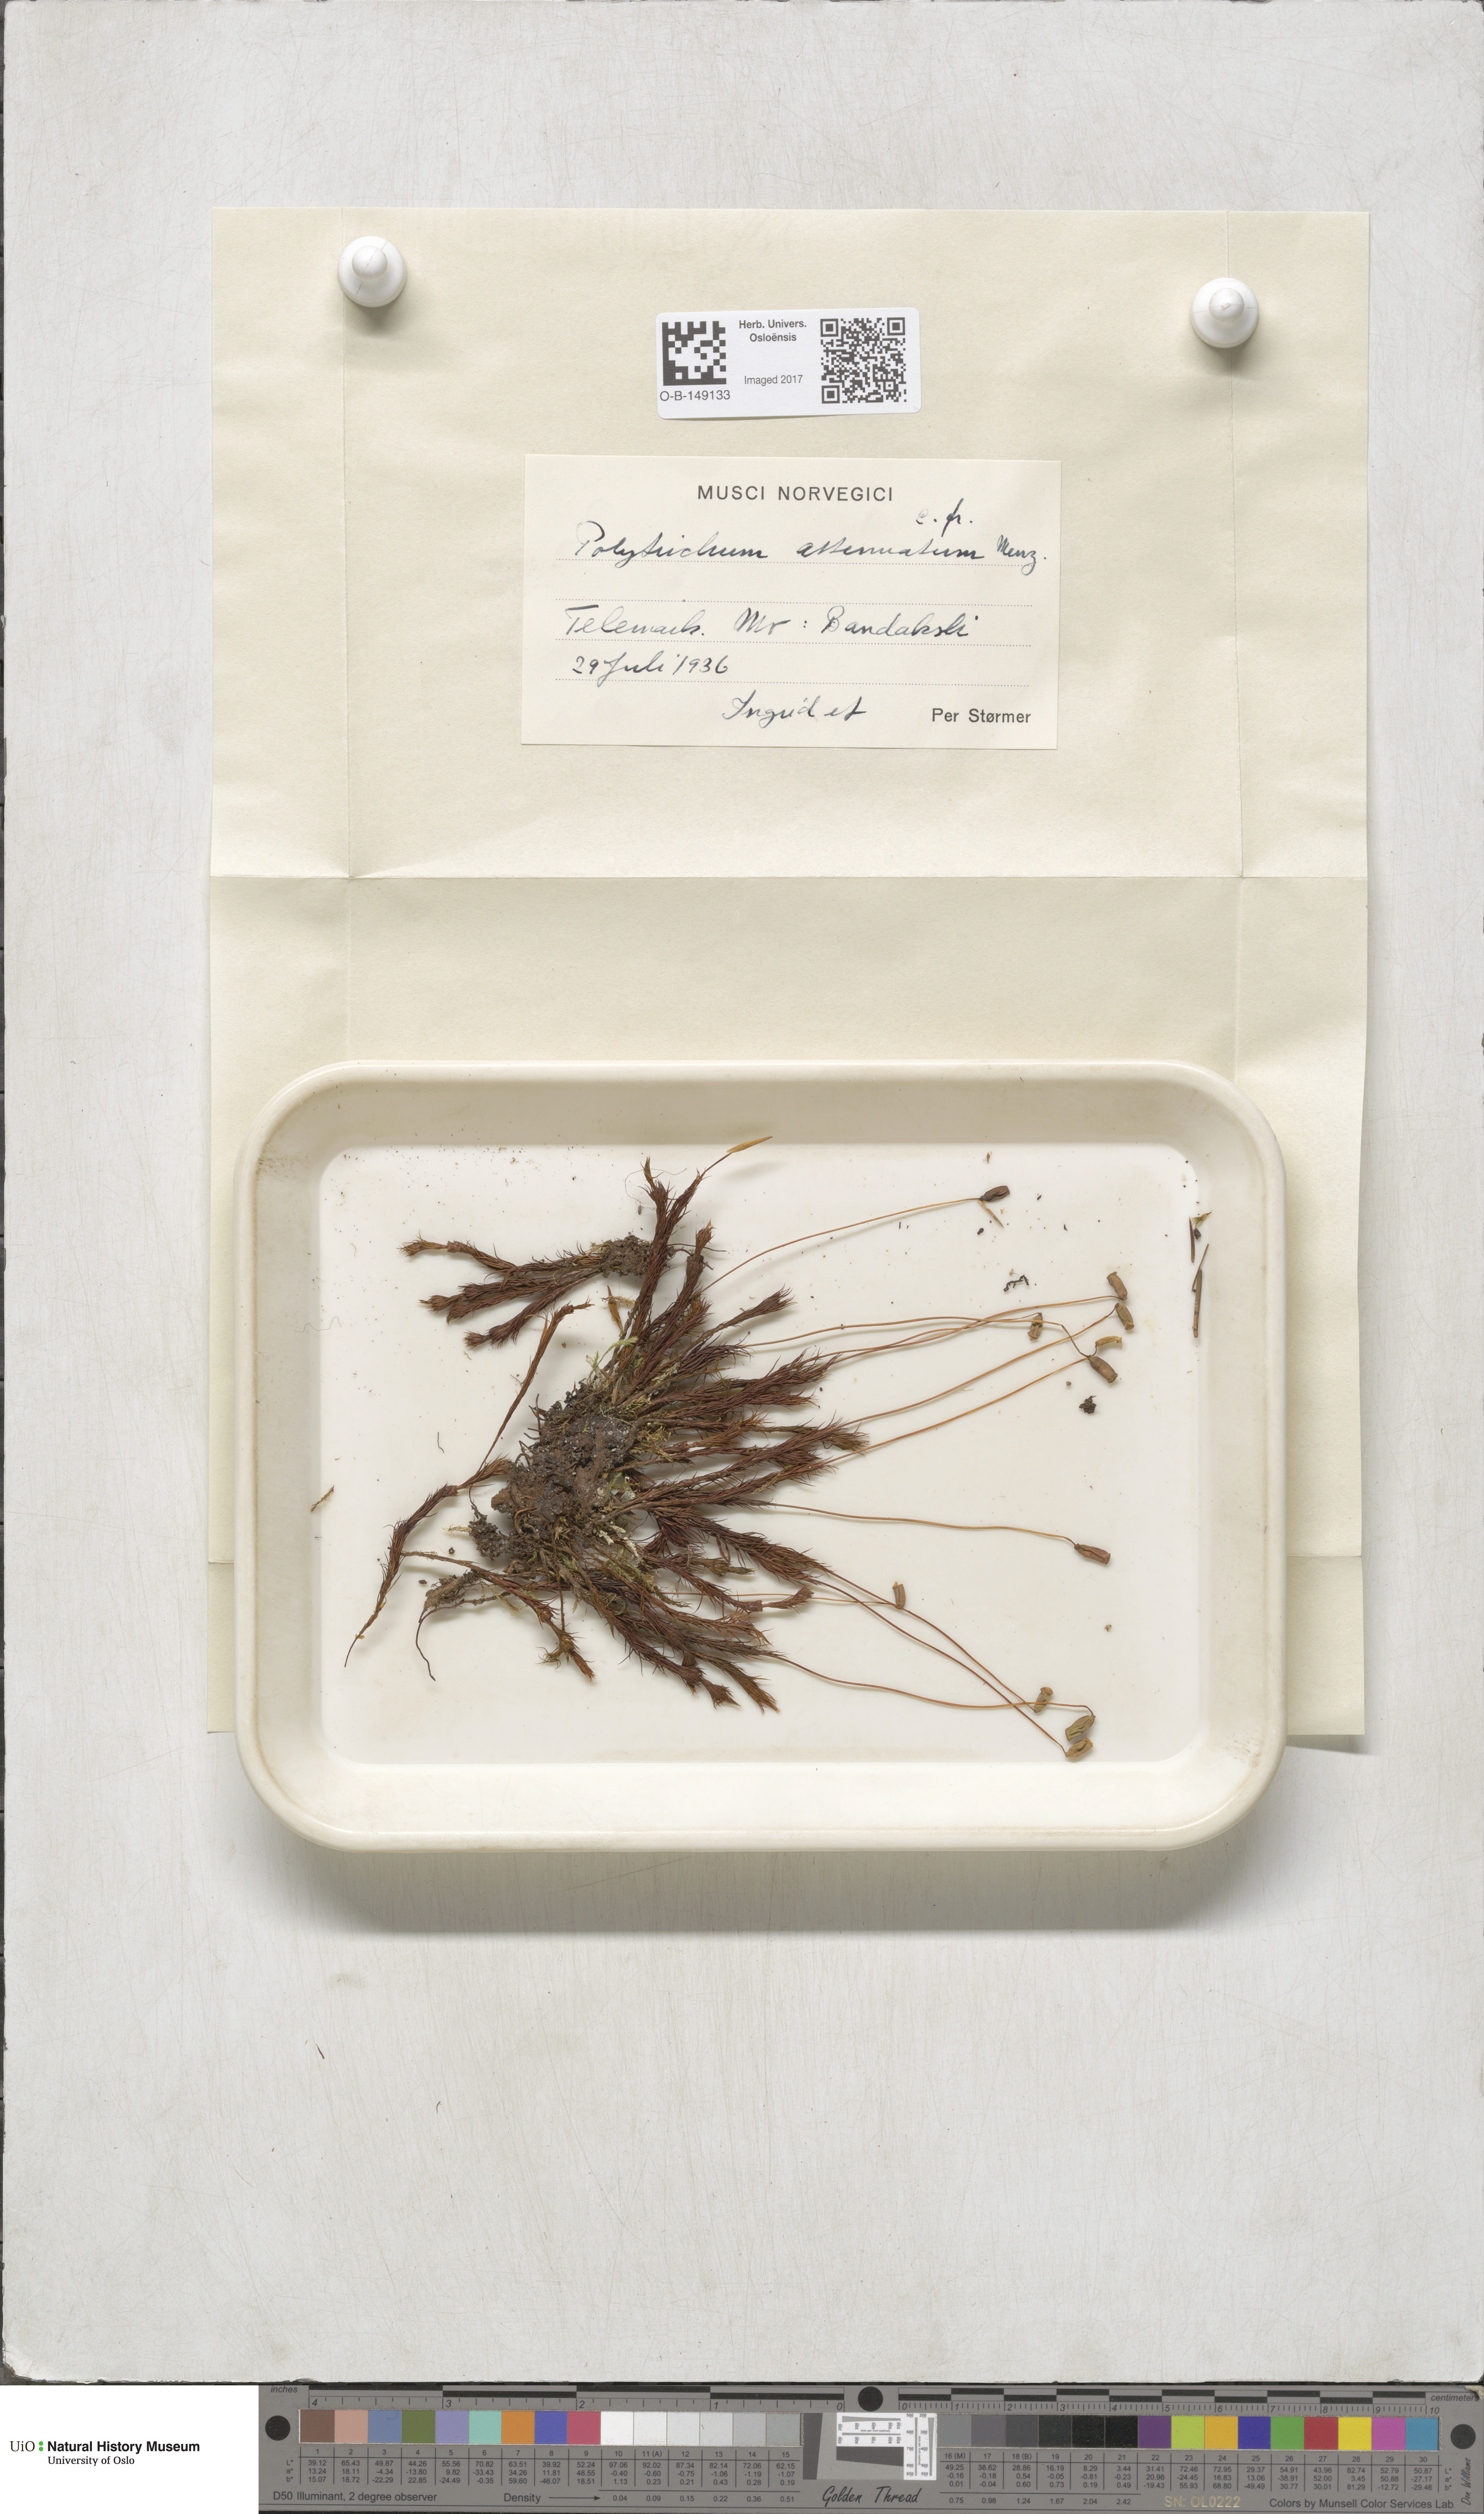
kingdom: Plantae
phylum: Bryophyta
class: Polytrichopsida
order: Polytrichales
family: Polytrichaceae
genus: Polytrichum
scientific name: Polytrichum formosum
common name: Bank haircap moss
